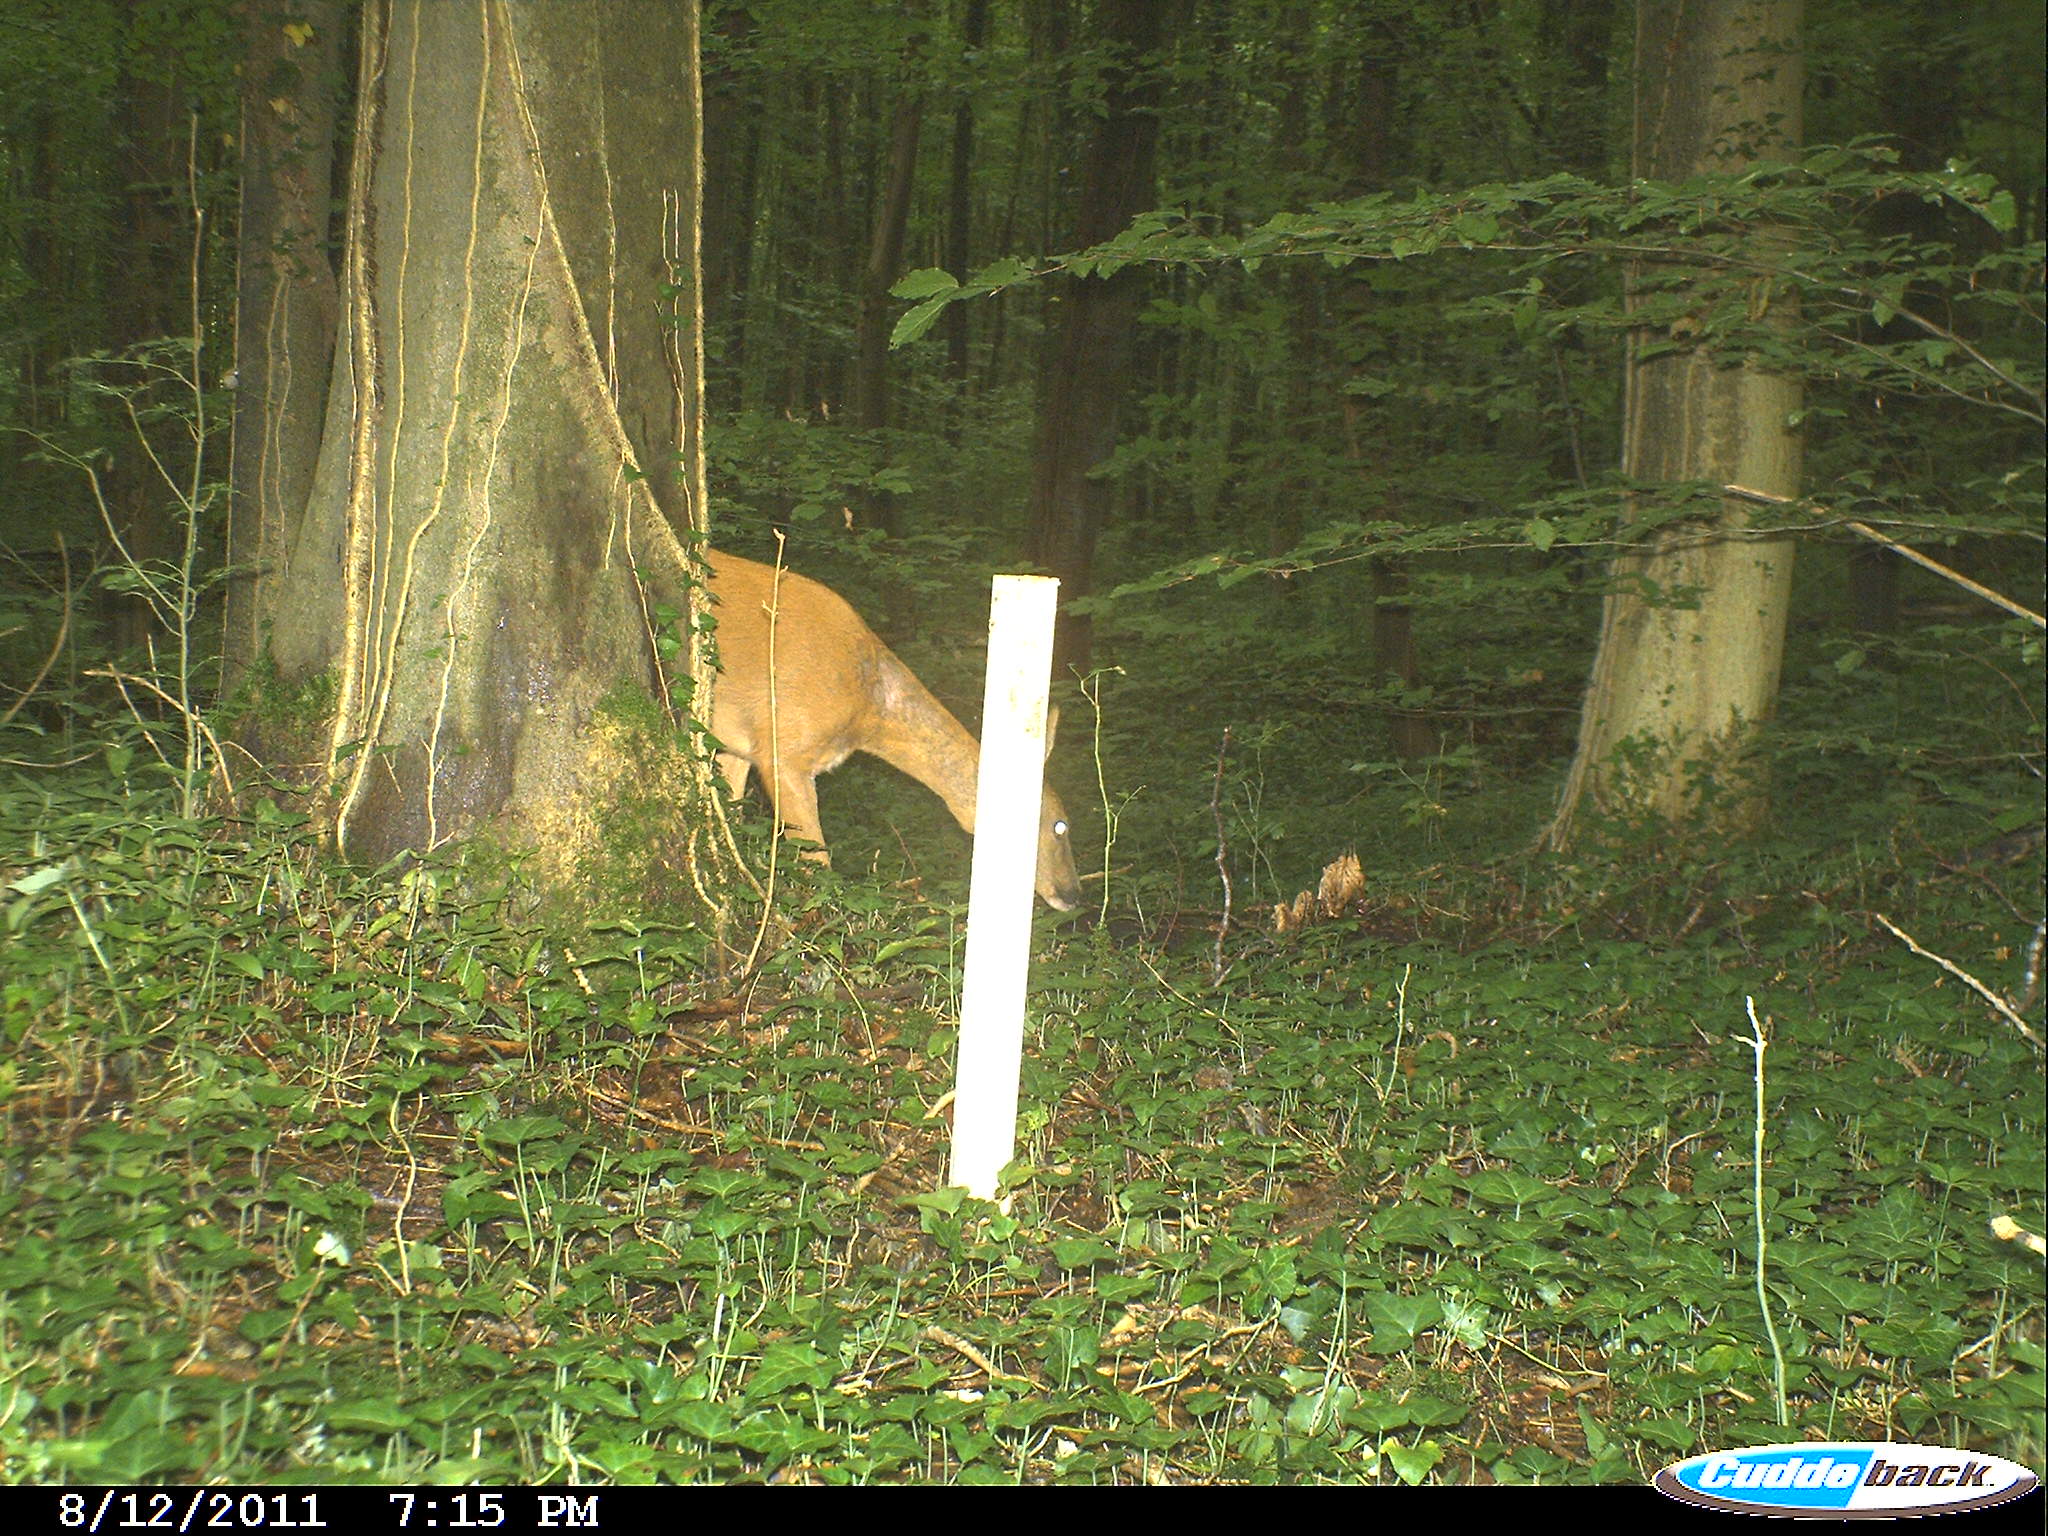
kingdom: Animalia
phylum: Chordata
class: Mammalia
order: Artiodactyla
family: Cervidae
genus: Capreolus
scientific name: Capreolus capreolus
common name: Western roe deer
